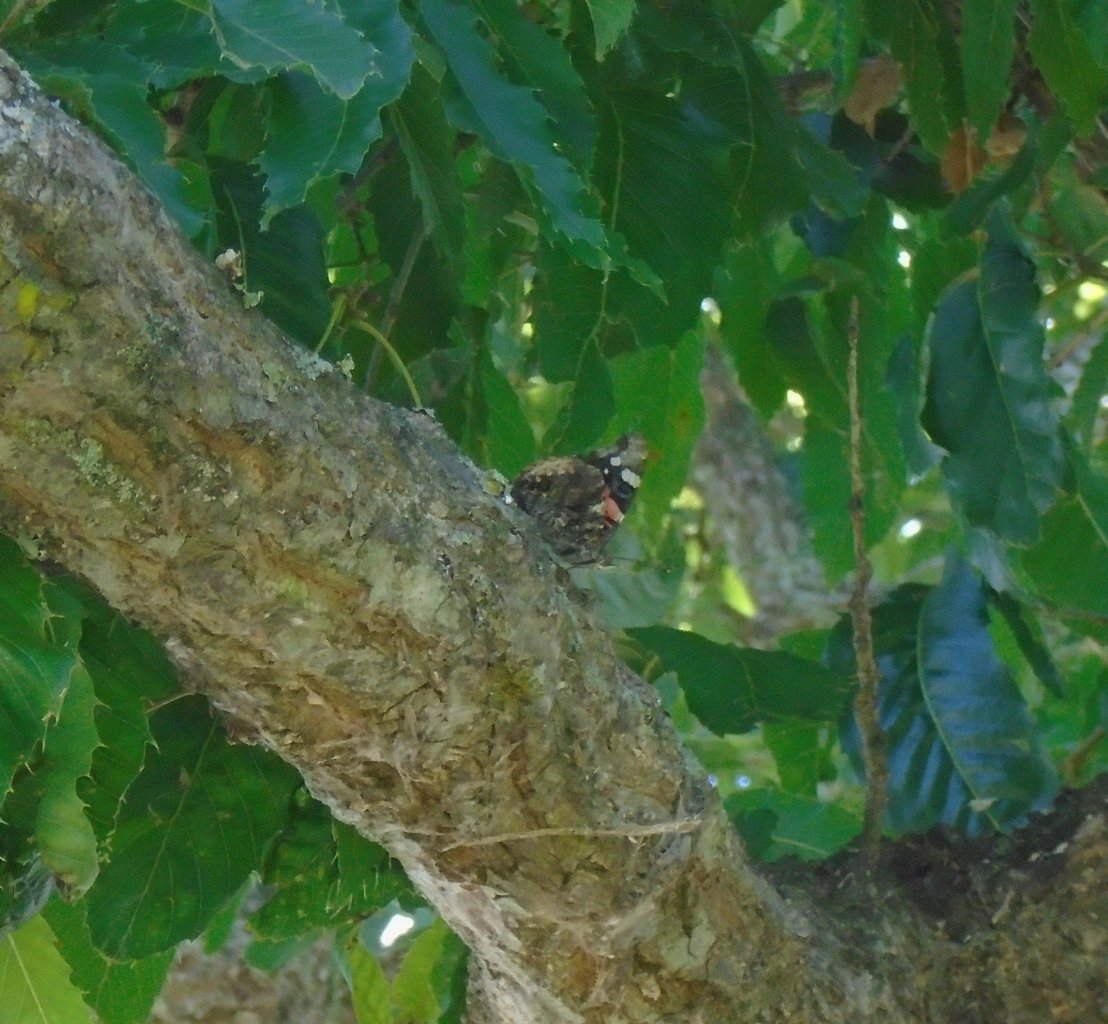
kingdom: Animalia
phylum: Arthropoda
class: Insecta
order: Lepidoptera
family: Nymphalidae
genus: Vanessa
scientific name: Vanessa atalanta
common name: Red Admiral
